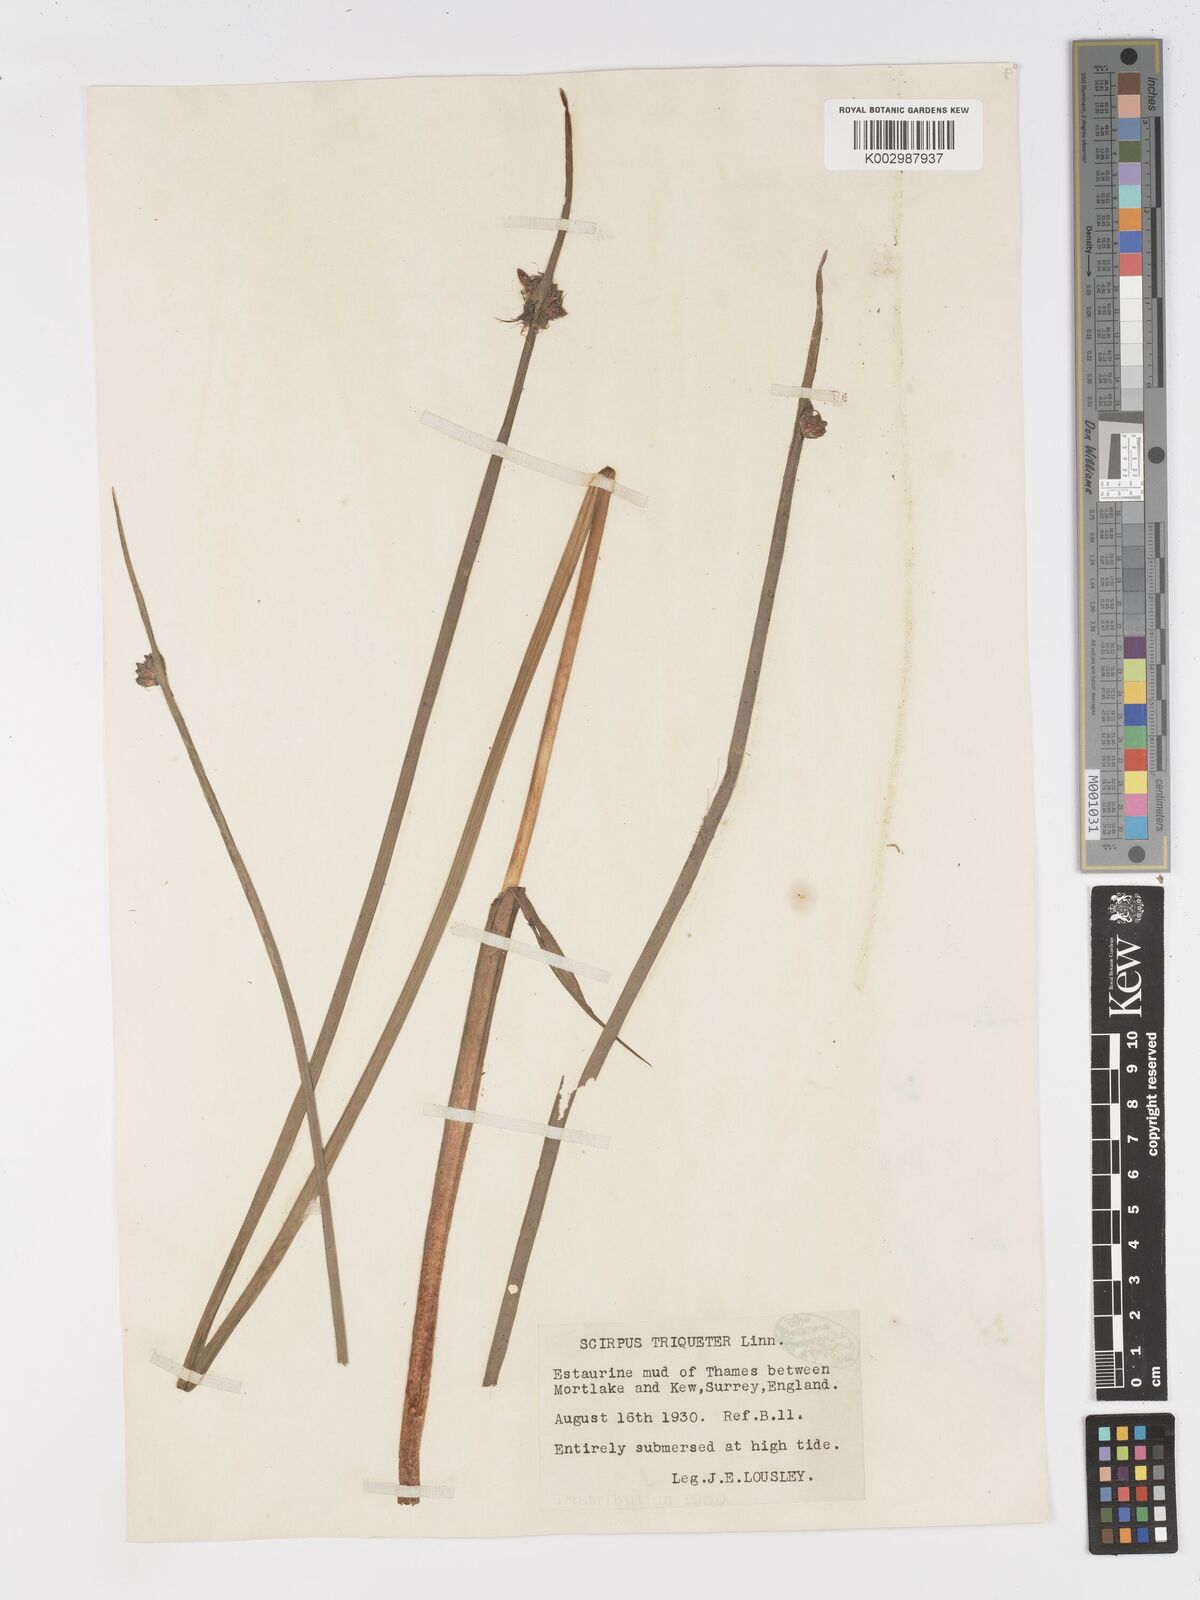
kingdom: Plantae
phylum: Tracheophyta
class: Liliopsida
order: Poales
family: Cyperaceae
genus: Schoenoplectus
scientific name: Schoenoplectus triqueter
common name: Triangular club-rush
